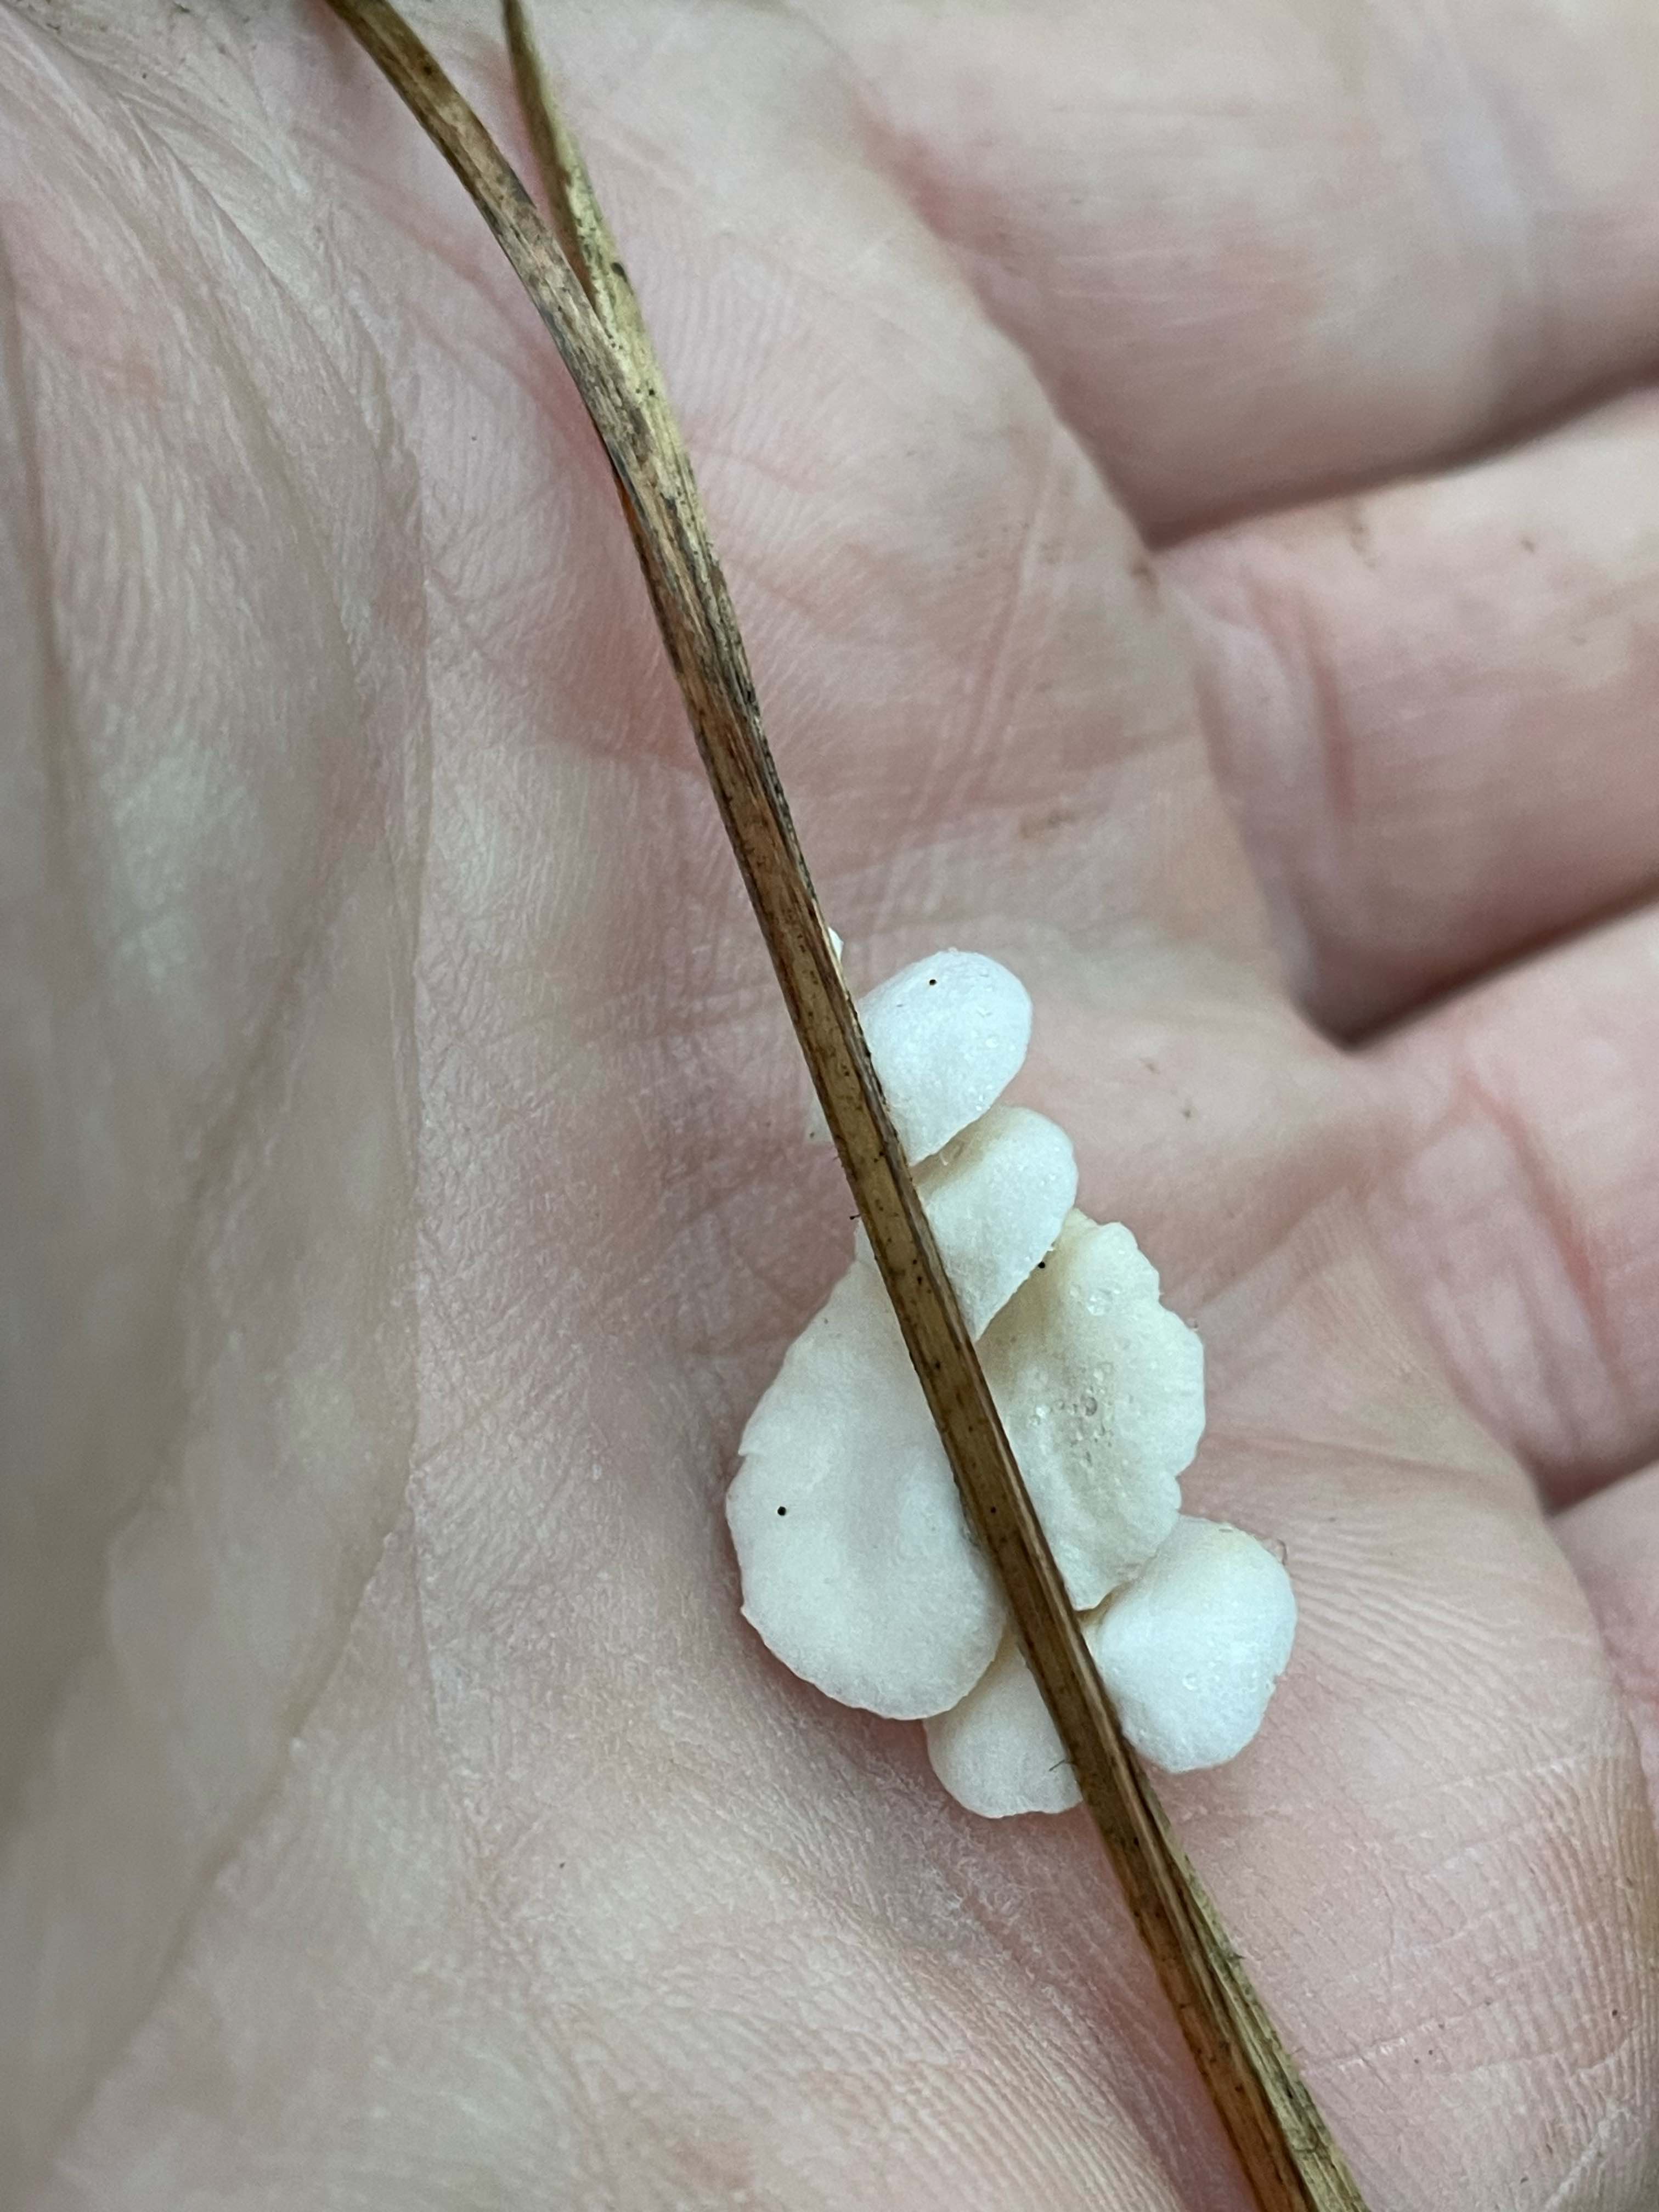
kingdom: Fungi
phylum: Basidiomycota
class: Agaricomycetes
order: Agaricales
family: Crepidotaceae
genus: Crepidotus
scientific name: Crepidotus
